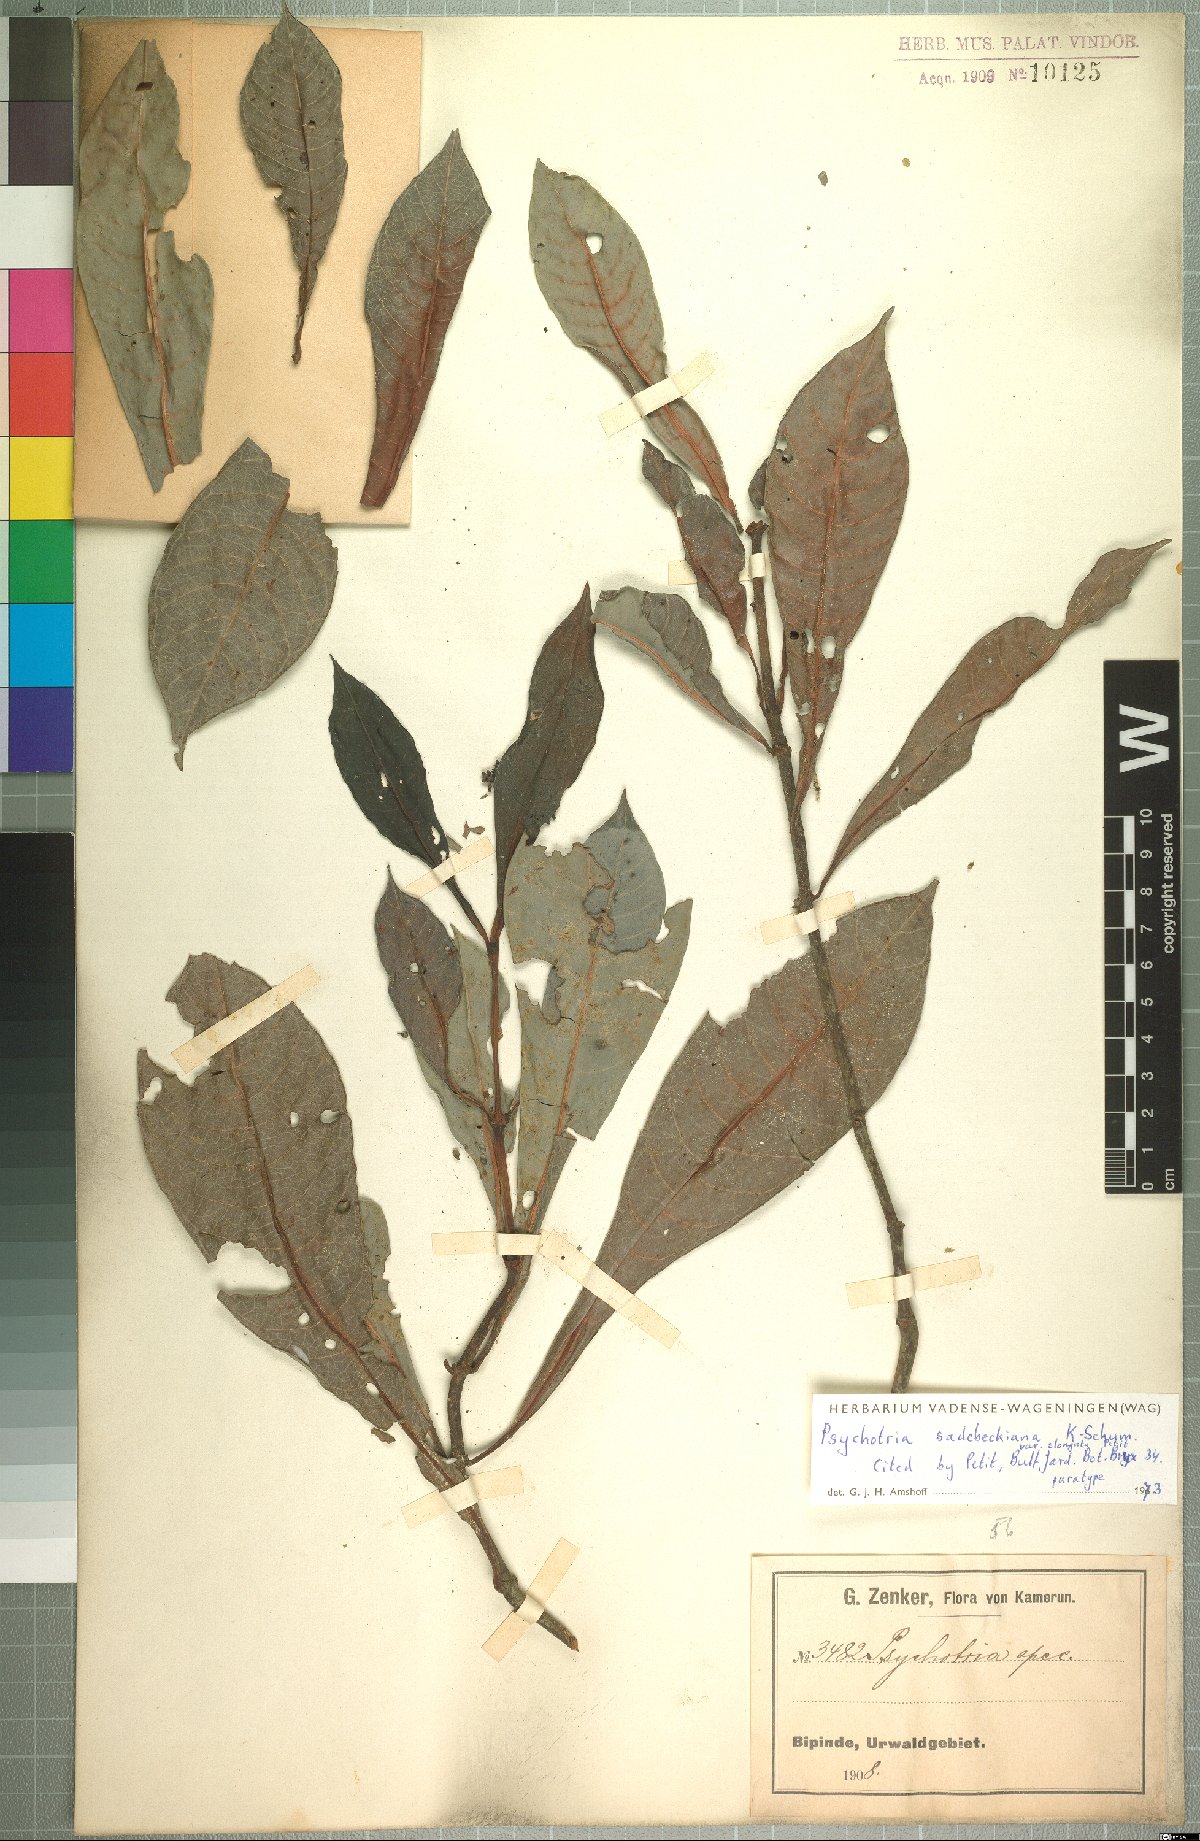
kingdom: Plantae
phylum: Tracheophyta
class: Magnoliopsida
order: Gentianales
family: Rubiaceae
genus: Psychotria
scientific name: Psychotria sadebeckiana
